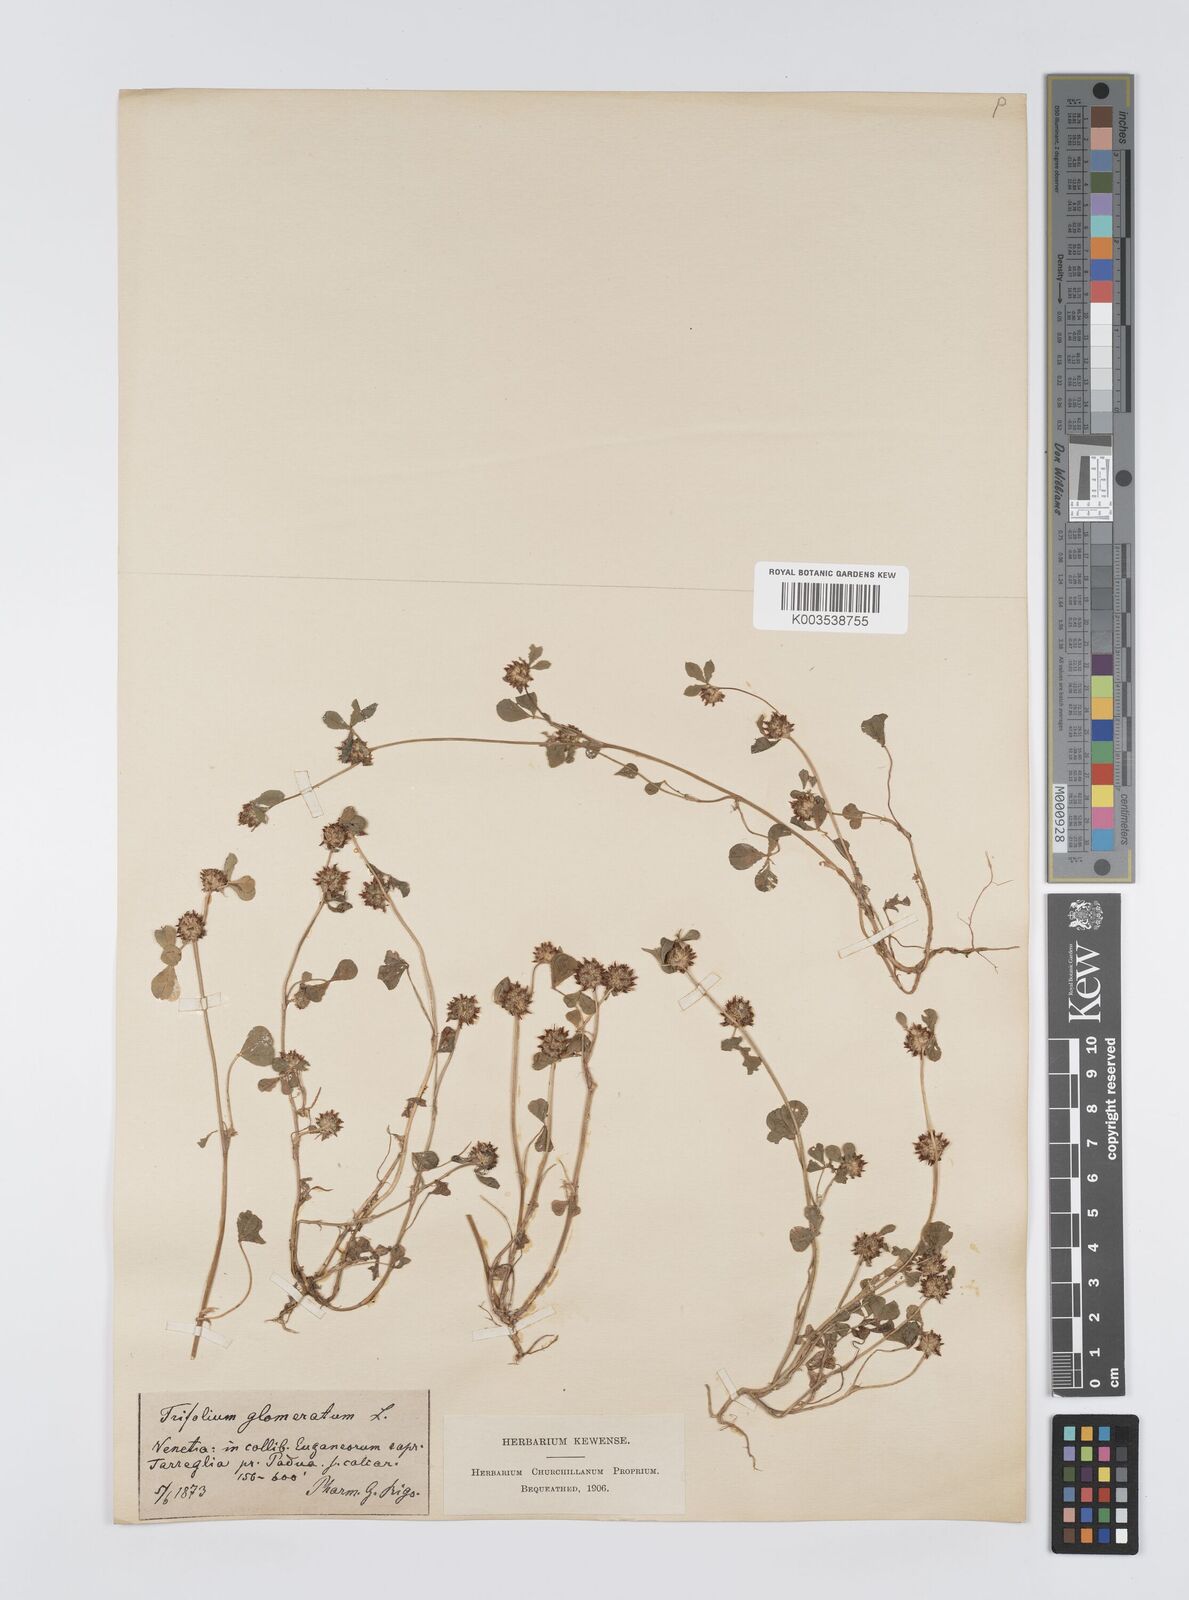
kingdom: Plantae
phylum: Tracheophyta
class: Magnoliopsida
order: Fabales
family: Fabaceae
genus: Trifolium
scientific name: Trifolium glomeratum
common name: Clustered clover
